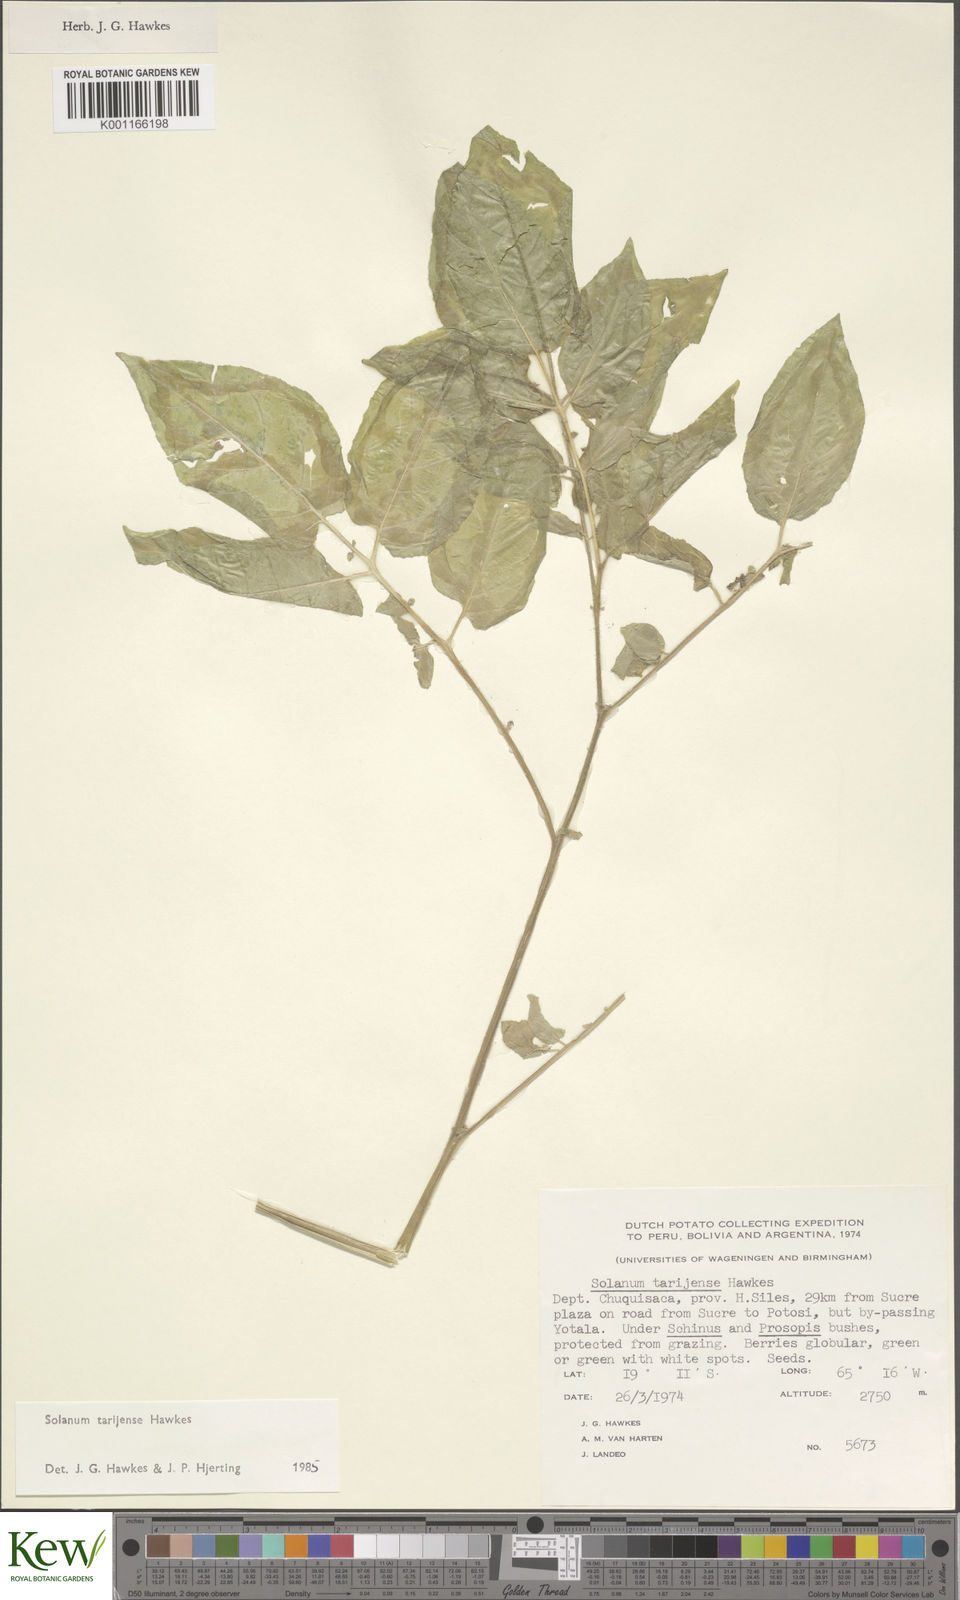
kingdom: Plantae
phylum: Tracheophyta
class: Magnoliopsida
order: Solanales
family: Solanaceae
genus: Solanum
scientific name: Solanum tarijense
